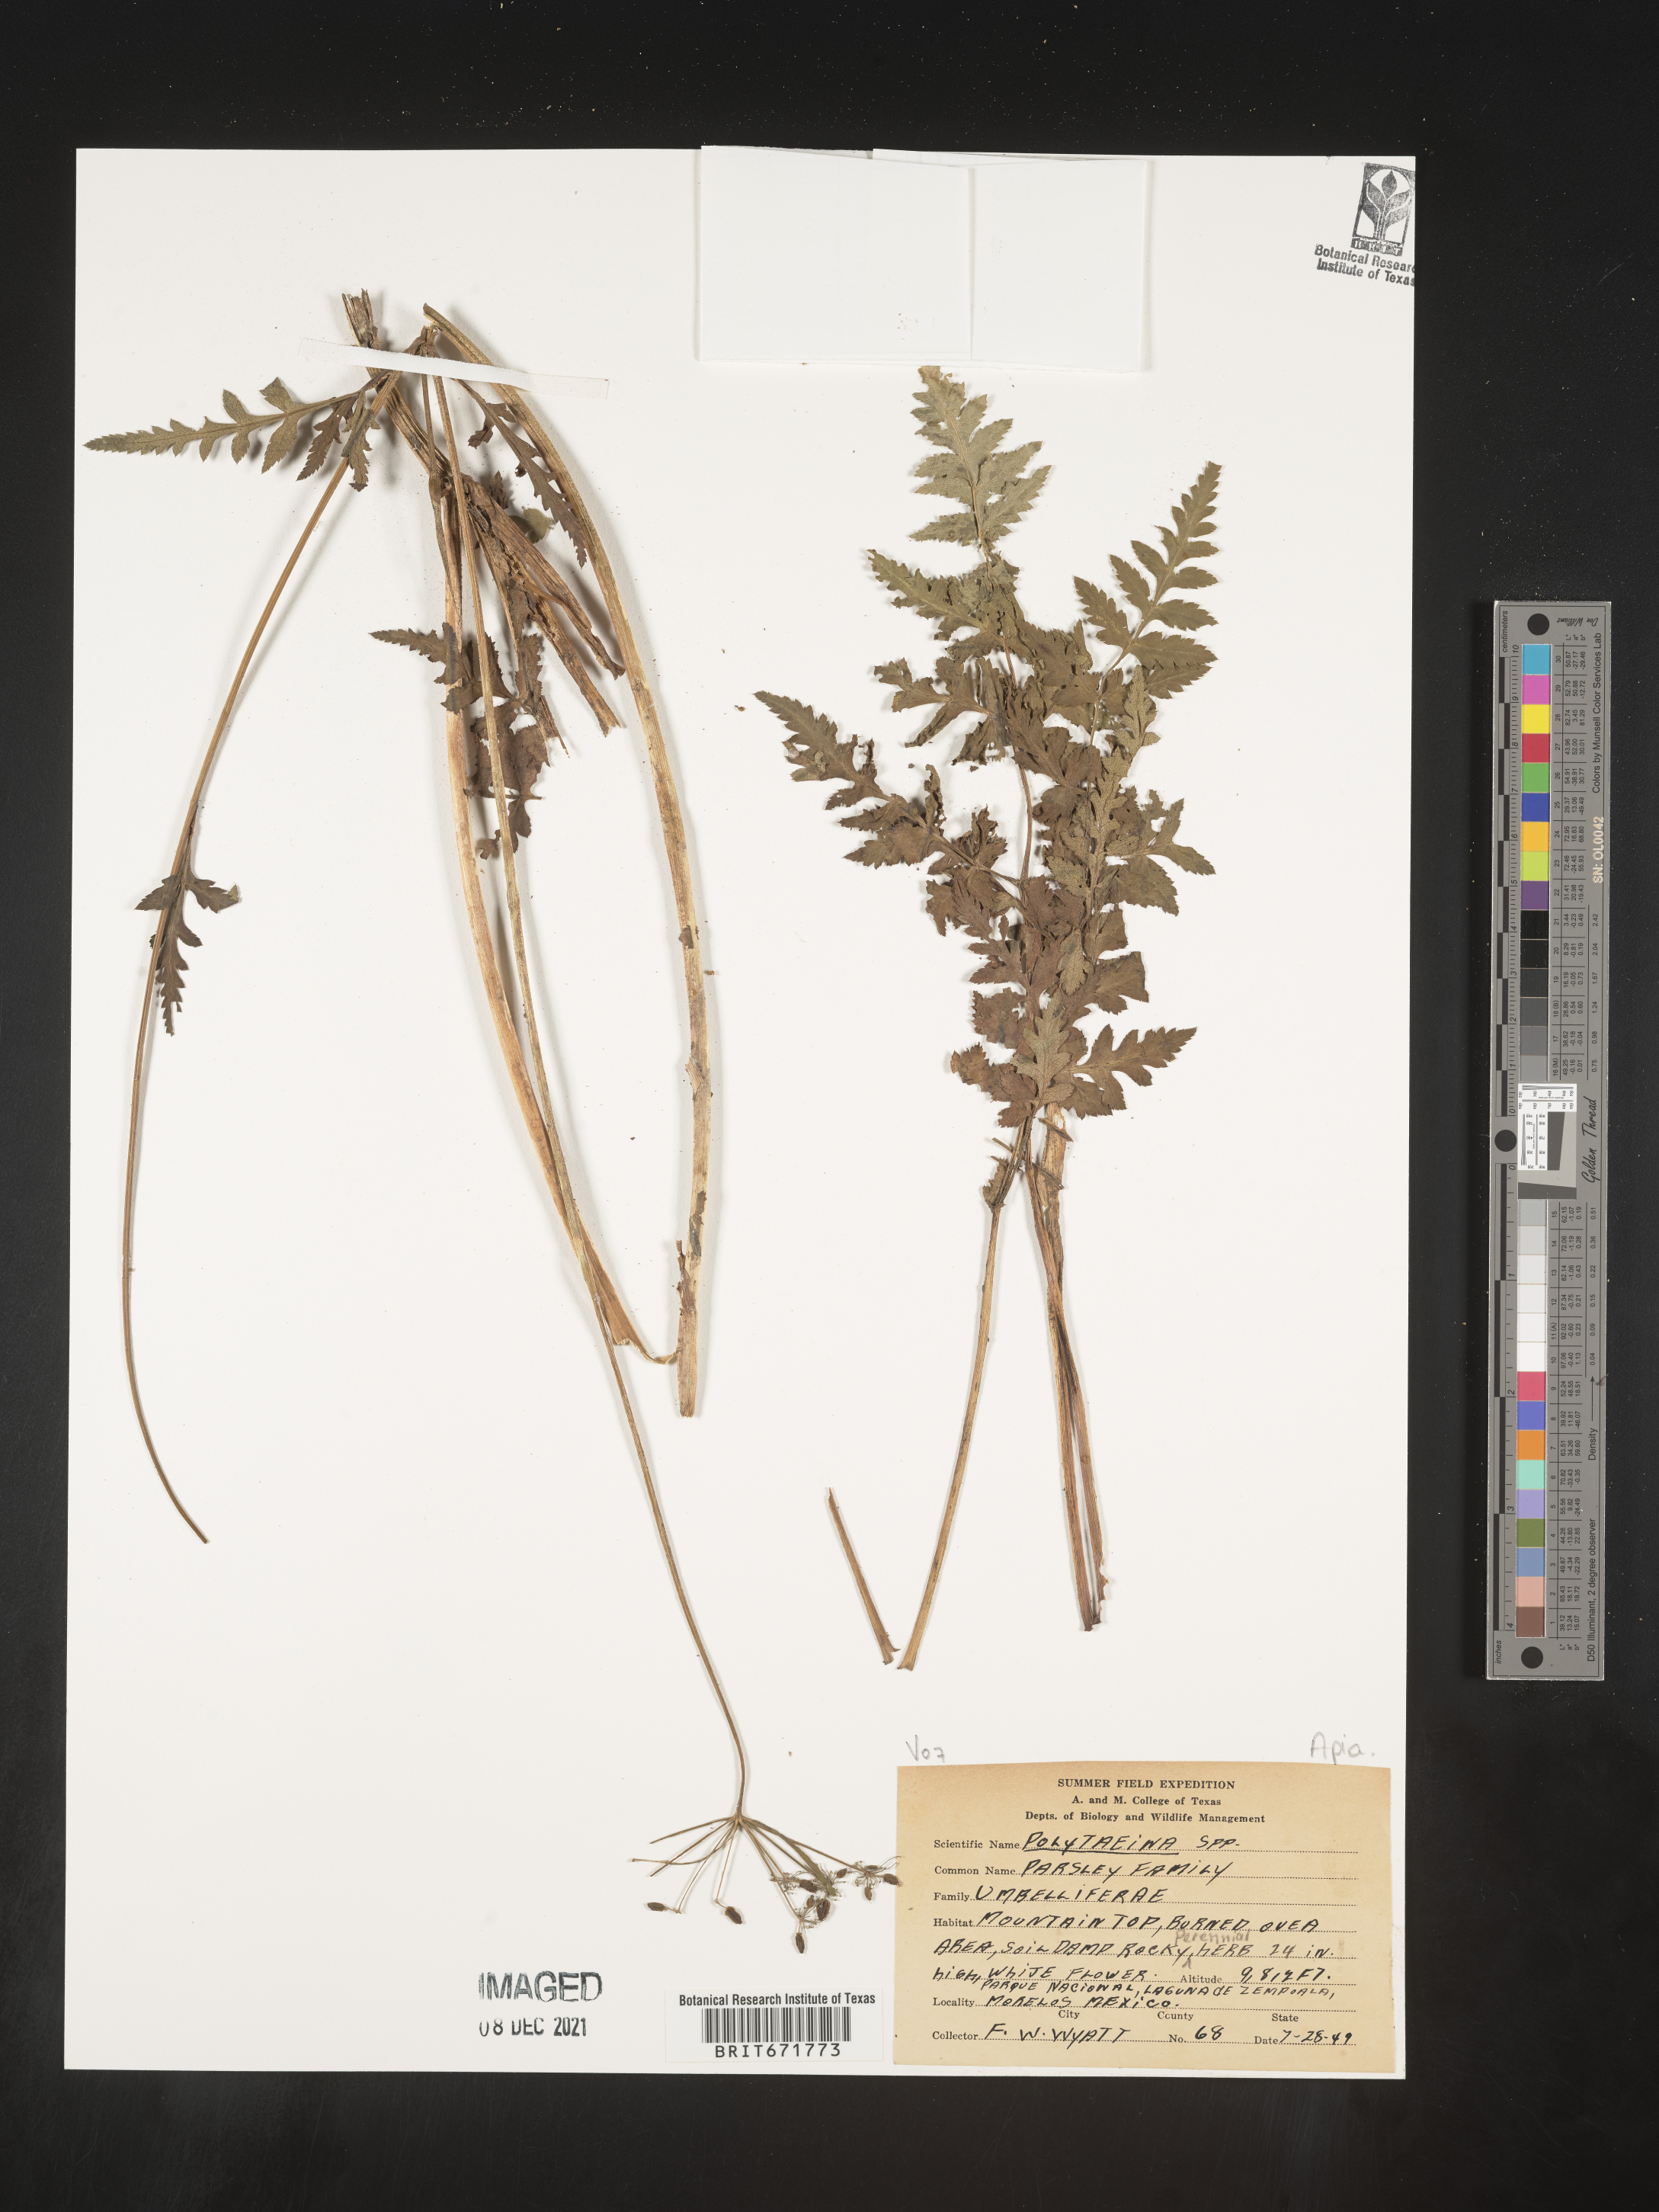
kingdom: Plantae
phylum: Tracheophyta
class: Magnoliopsida
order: Apiales
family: Apiaceae
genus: Polytaenia
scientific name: Polytaenia
